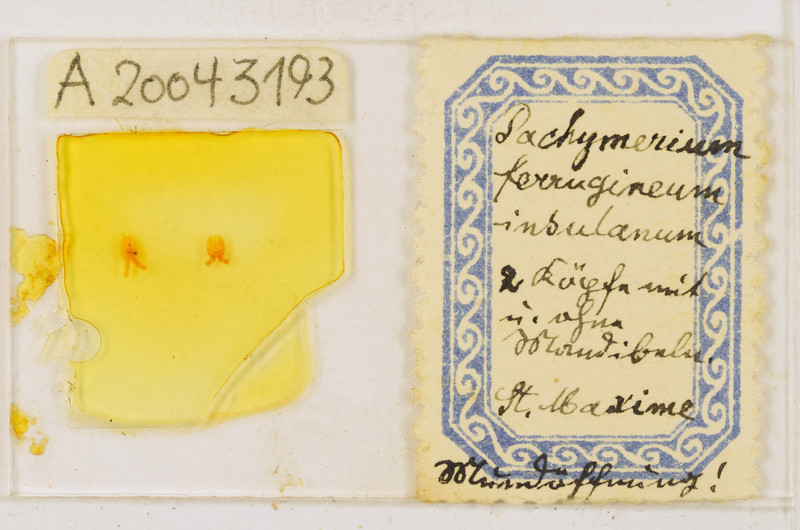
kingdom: Animalia
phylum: Arthropoda
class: Chilopoda
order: Geophilomorpha
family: Geophilidae
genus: Pachymerium
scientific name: Pachymerium ferrugineum
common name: Centipede
